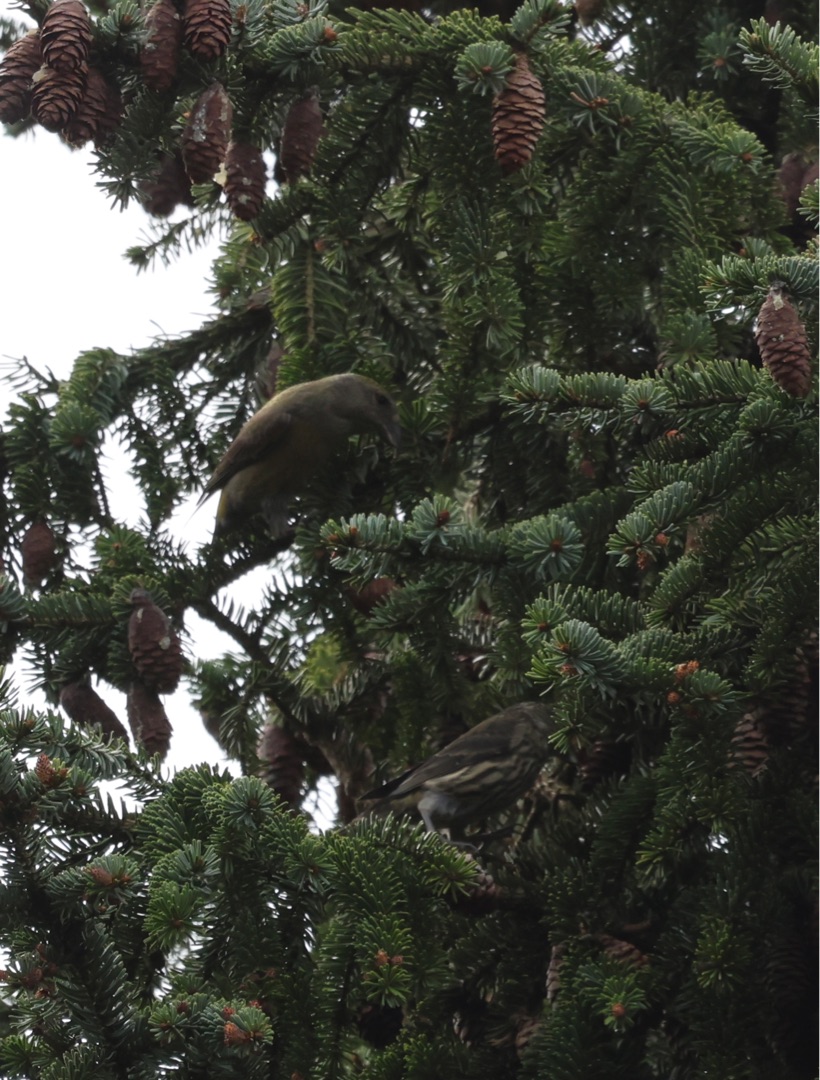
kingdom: Animalia
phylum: Chordata
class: Aves
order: Passeriformes
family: Fringillidae
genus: Loxia
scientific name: Loxia curvirostra
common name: Lille korsnæb
